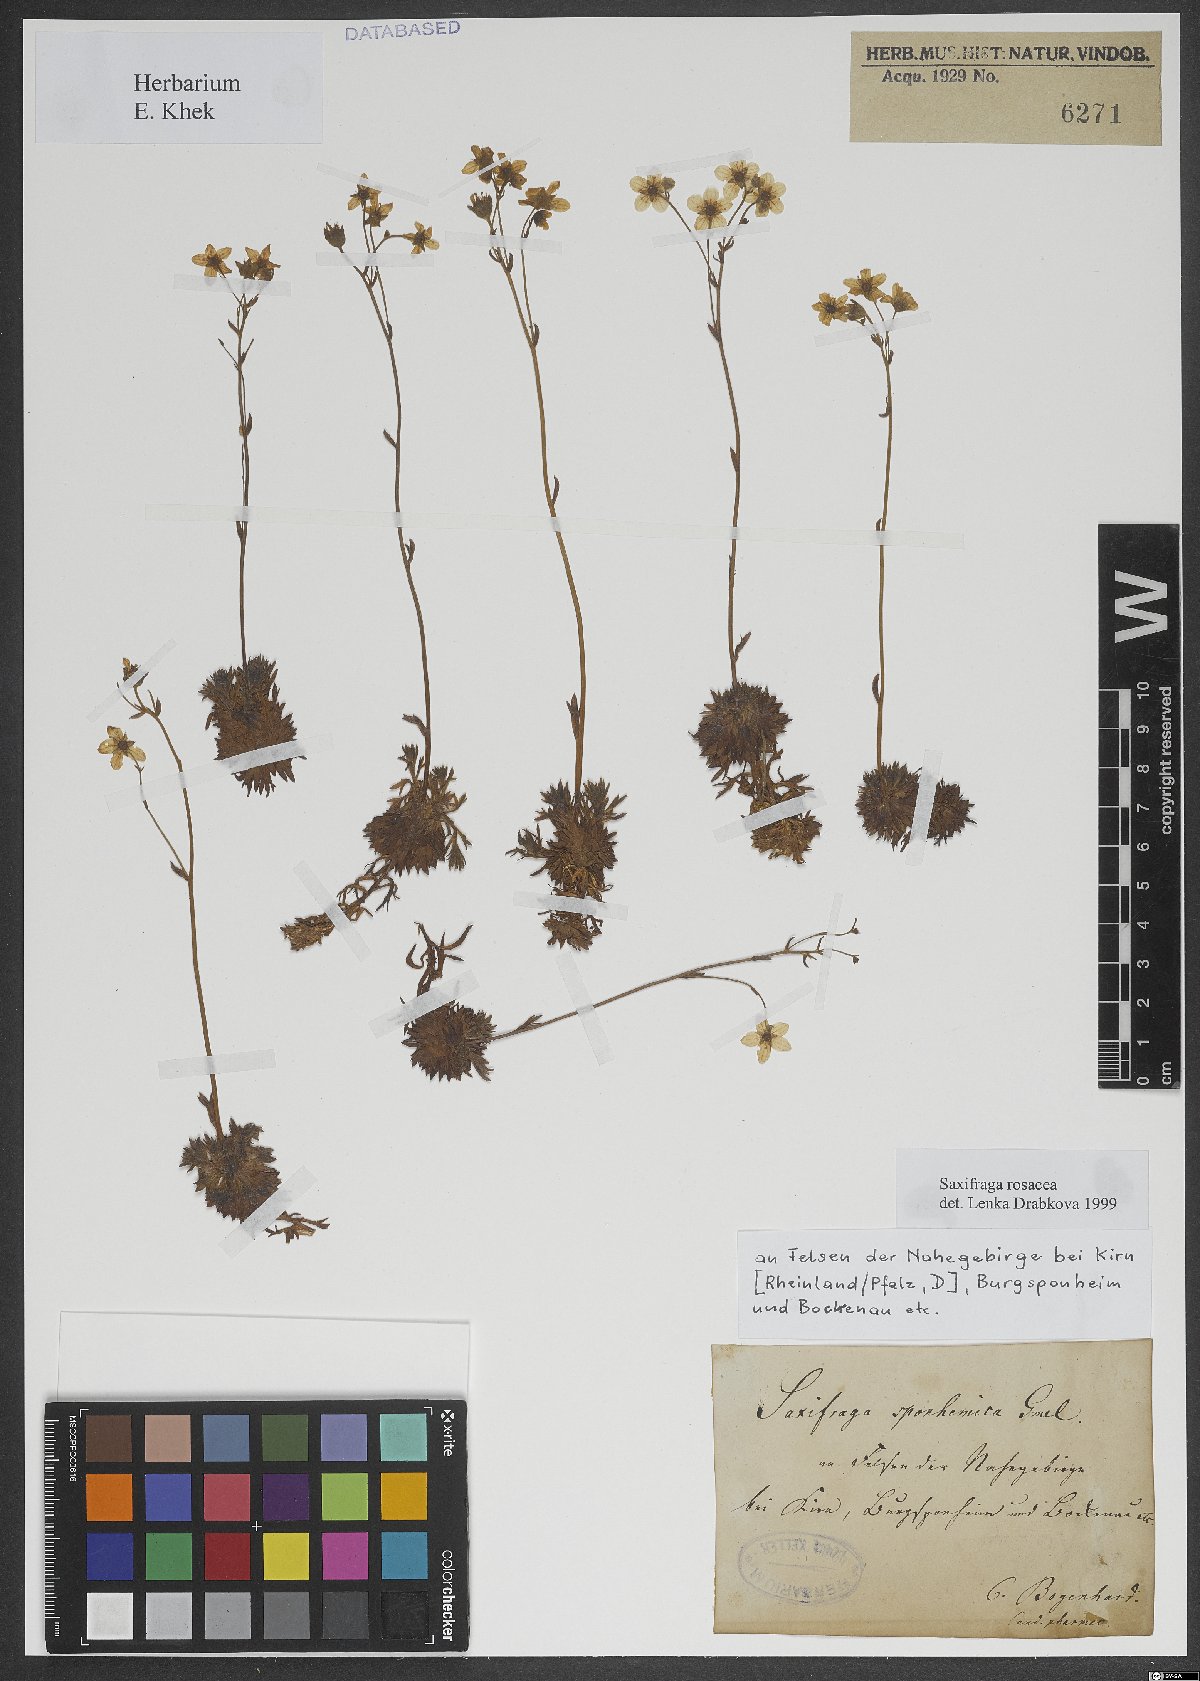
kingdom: Plantae
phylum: Tracheophyta
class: Magnoliopsida
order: Saxifragales
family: Saxifragaceae
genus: Saxifraga
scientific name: Saxifraga rosacea
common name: Irish saxifrage
